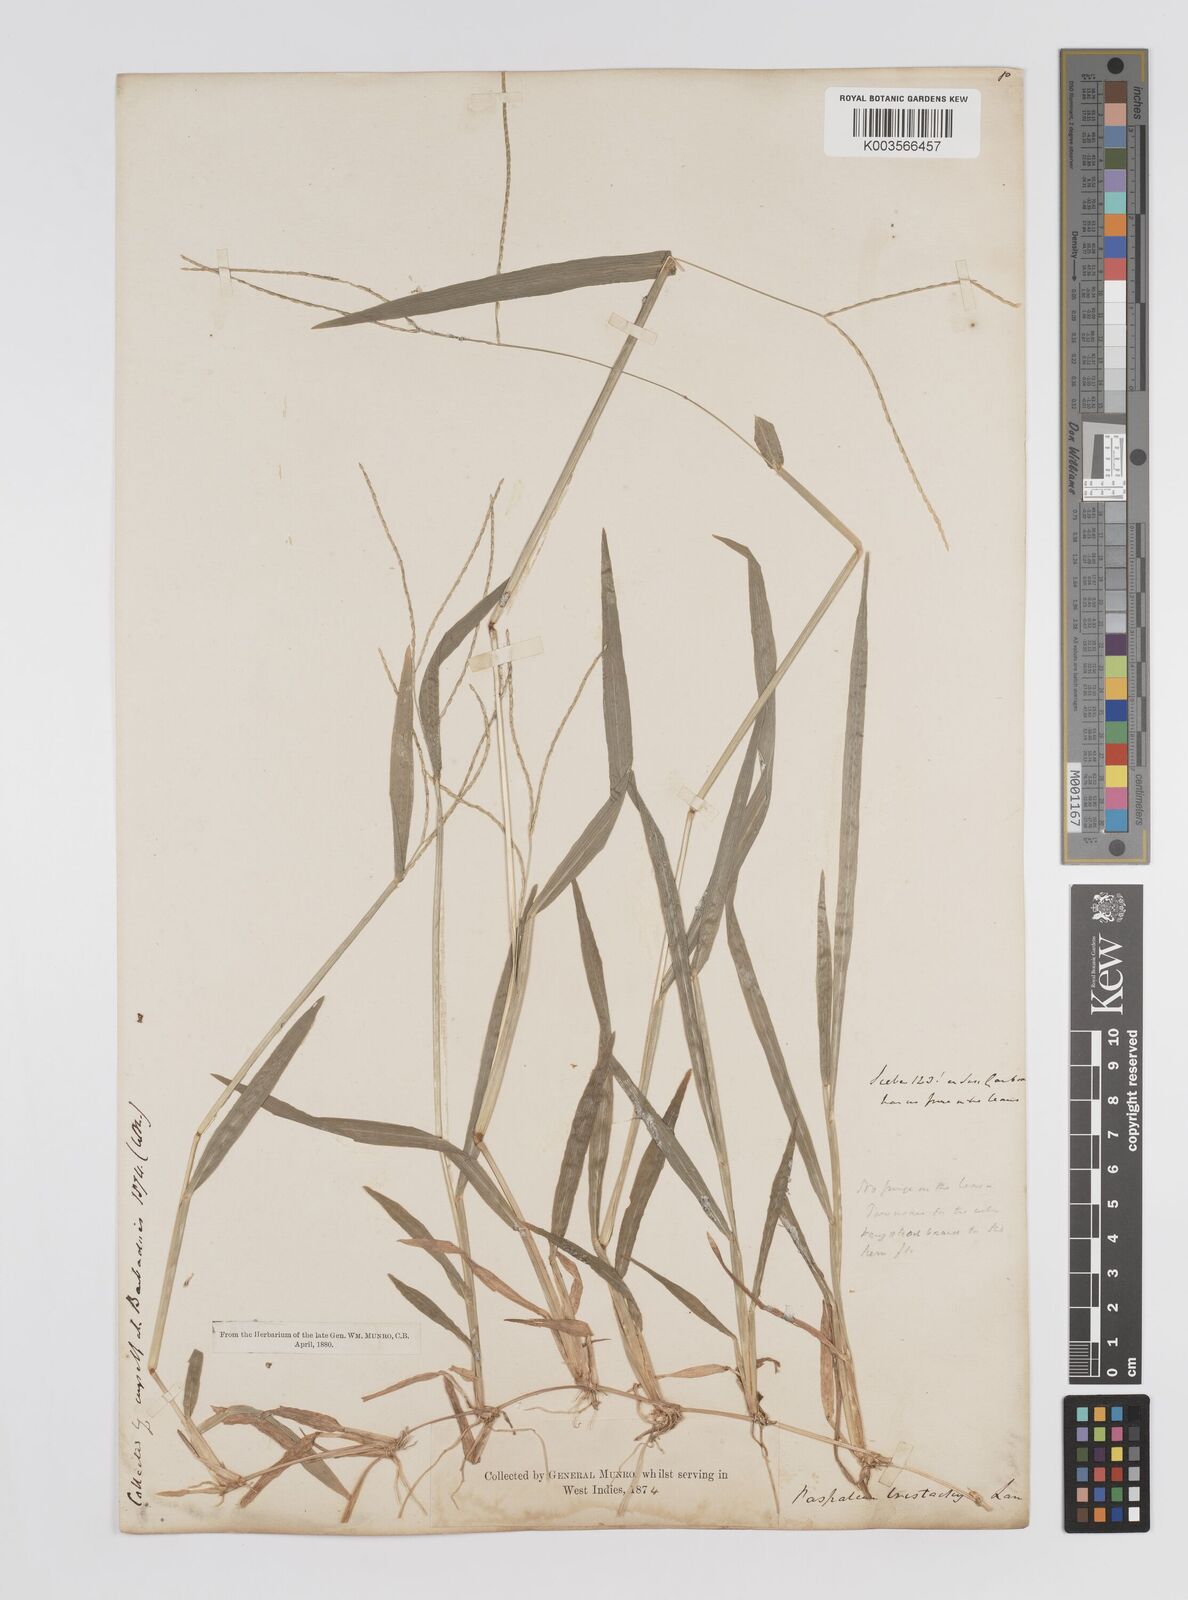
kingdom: Plantae
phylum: Tracheophyta
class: Liliopsida
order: Poales
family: Poaceae
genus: Axonopus
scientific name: Axonopus compressus
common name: American carpet grass
